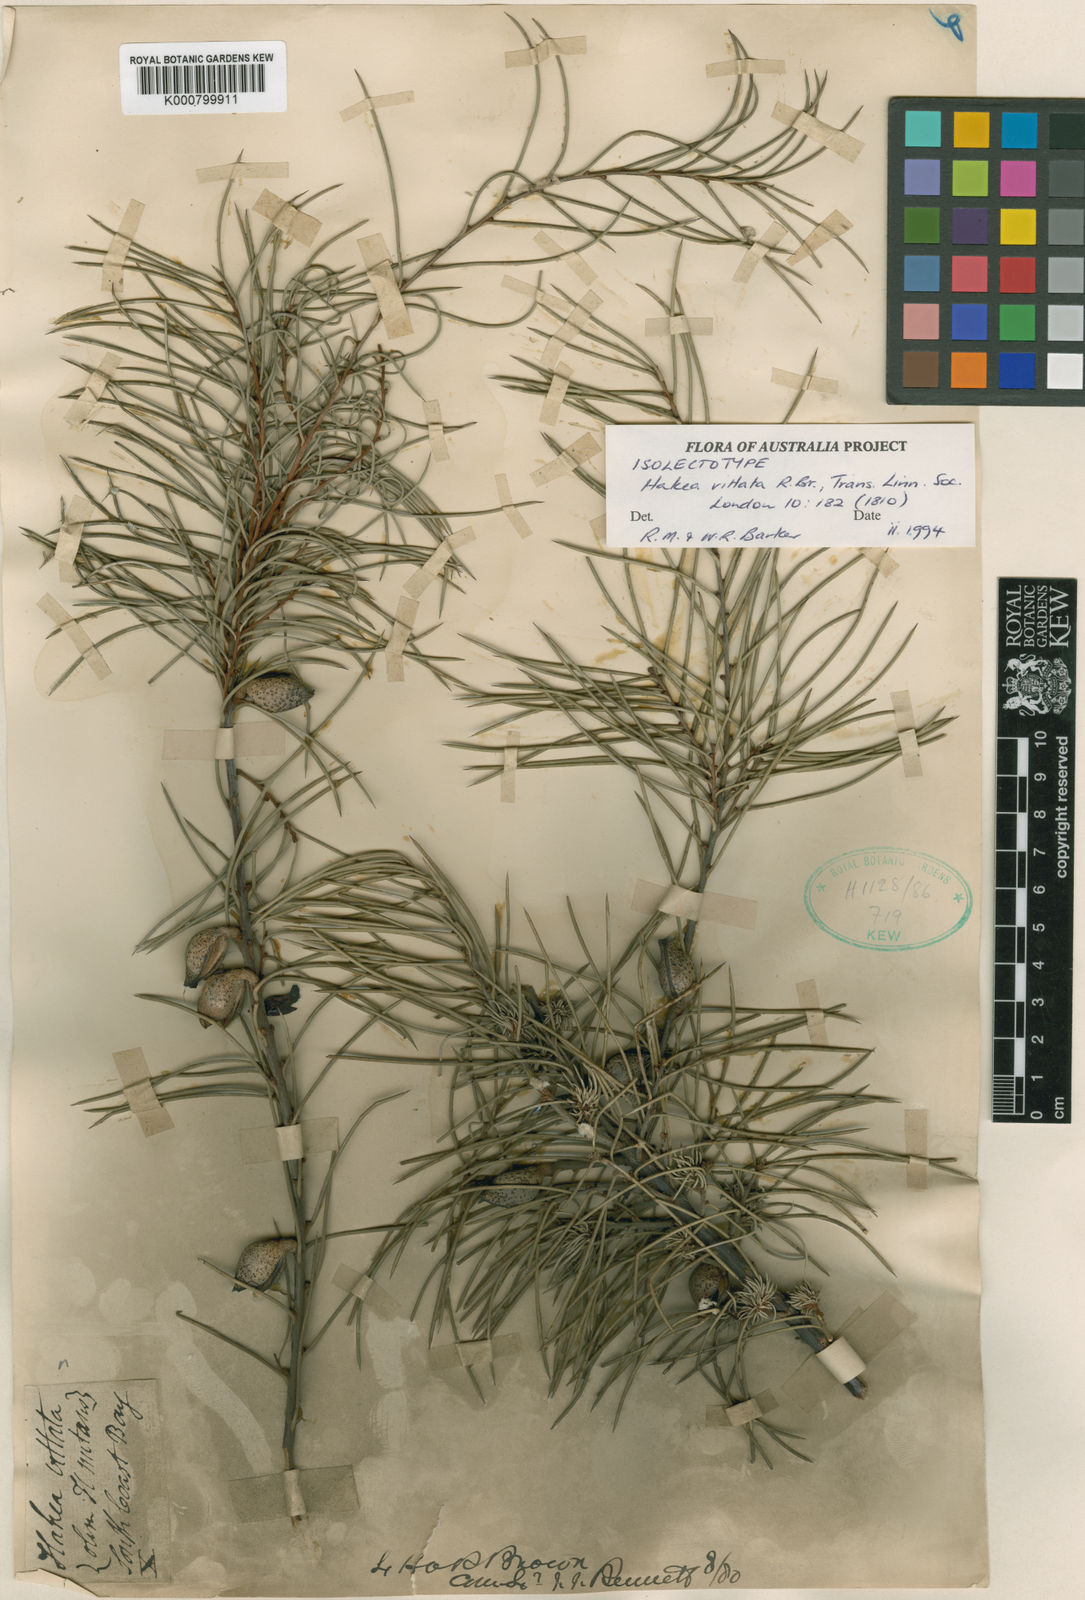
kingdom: Plantae
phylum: Tracheophyta
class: Magnoliopsida
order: Proteales
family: Proteaceae
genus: Hakea
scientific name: Hakea vittata
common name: Striped needlewood
